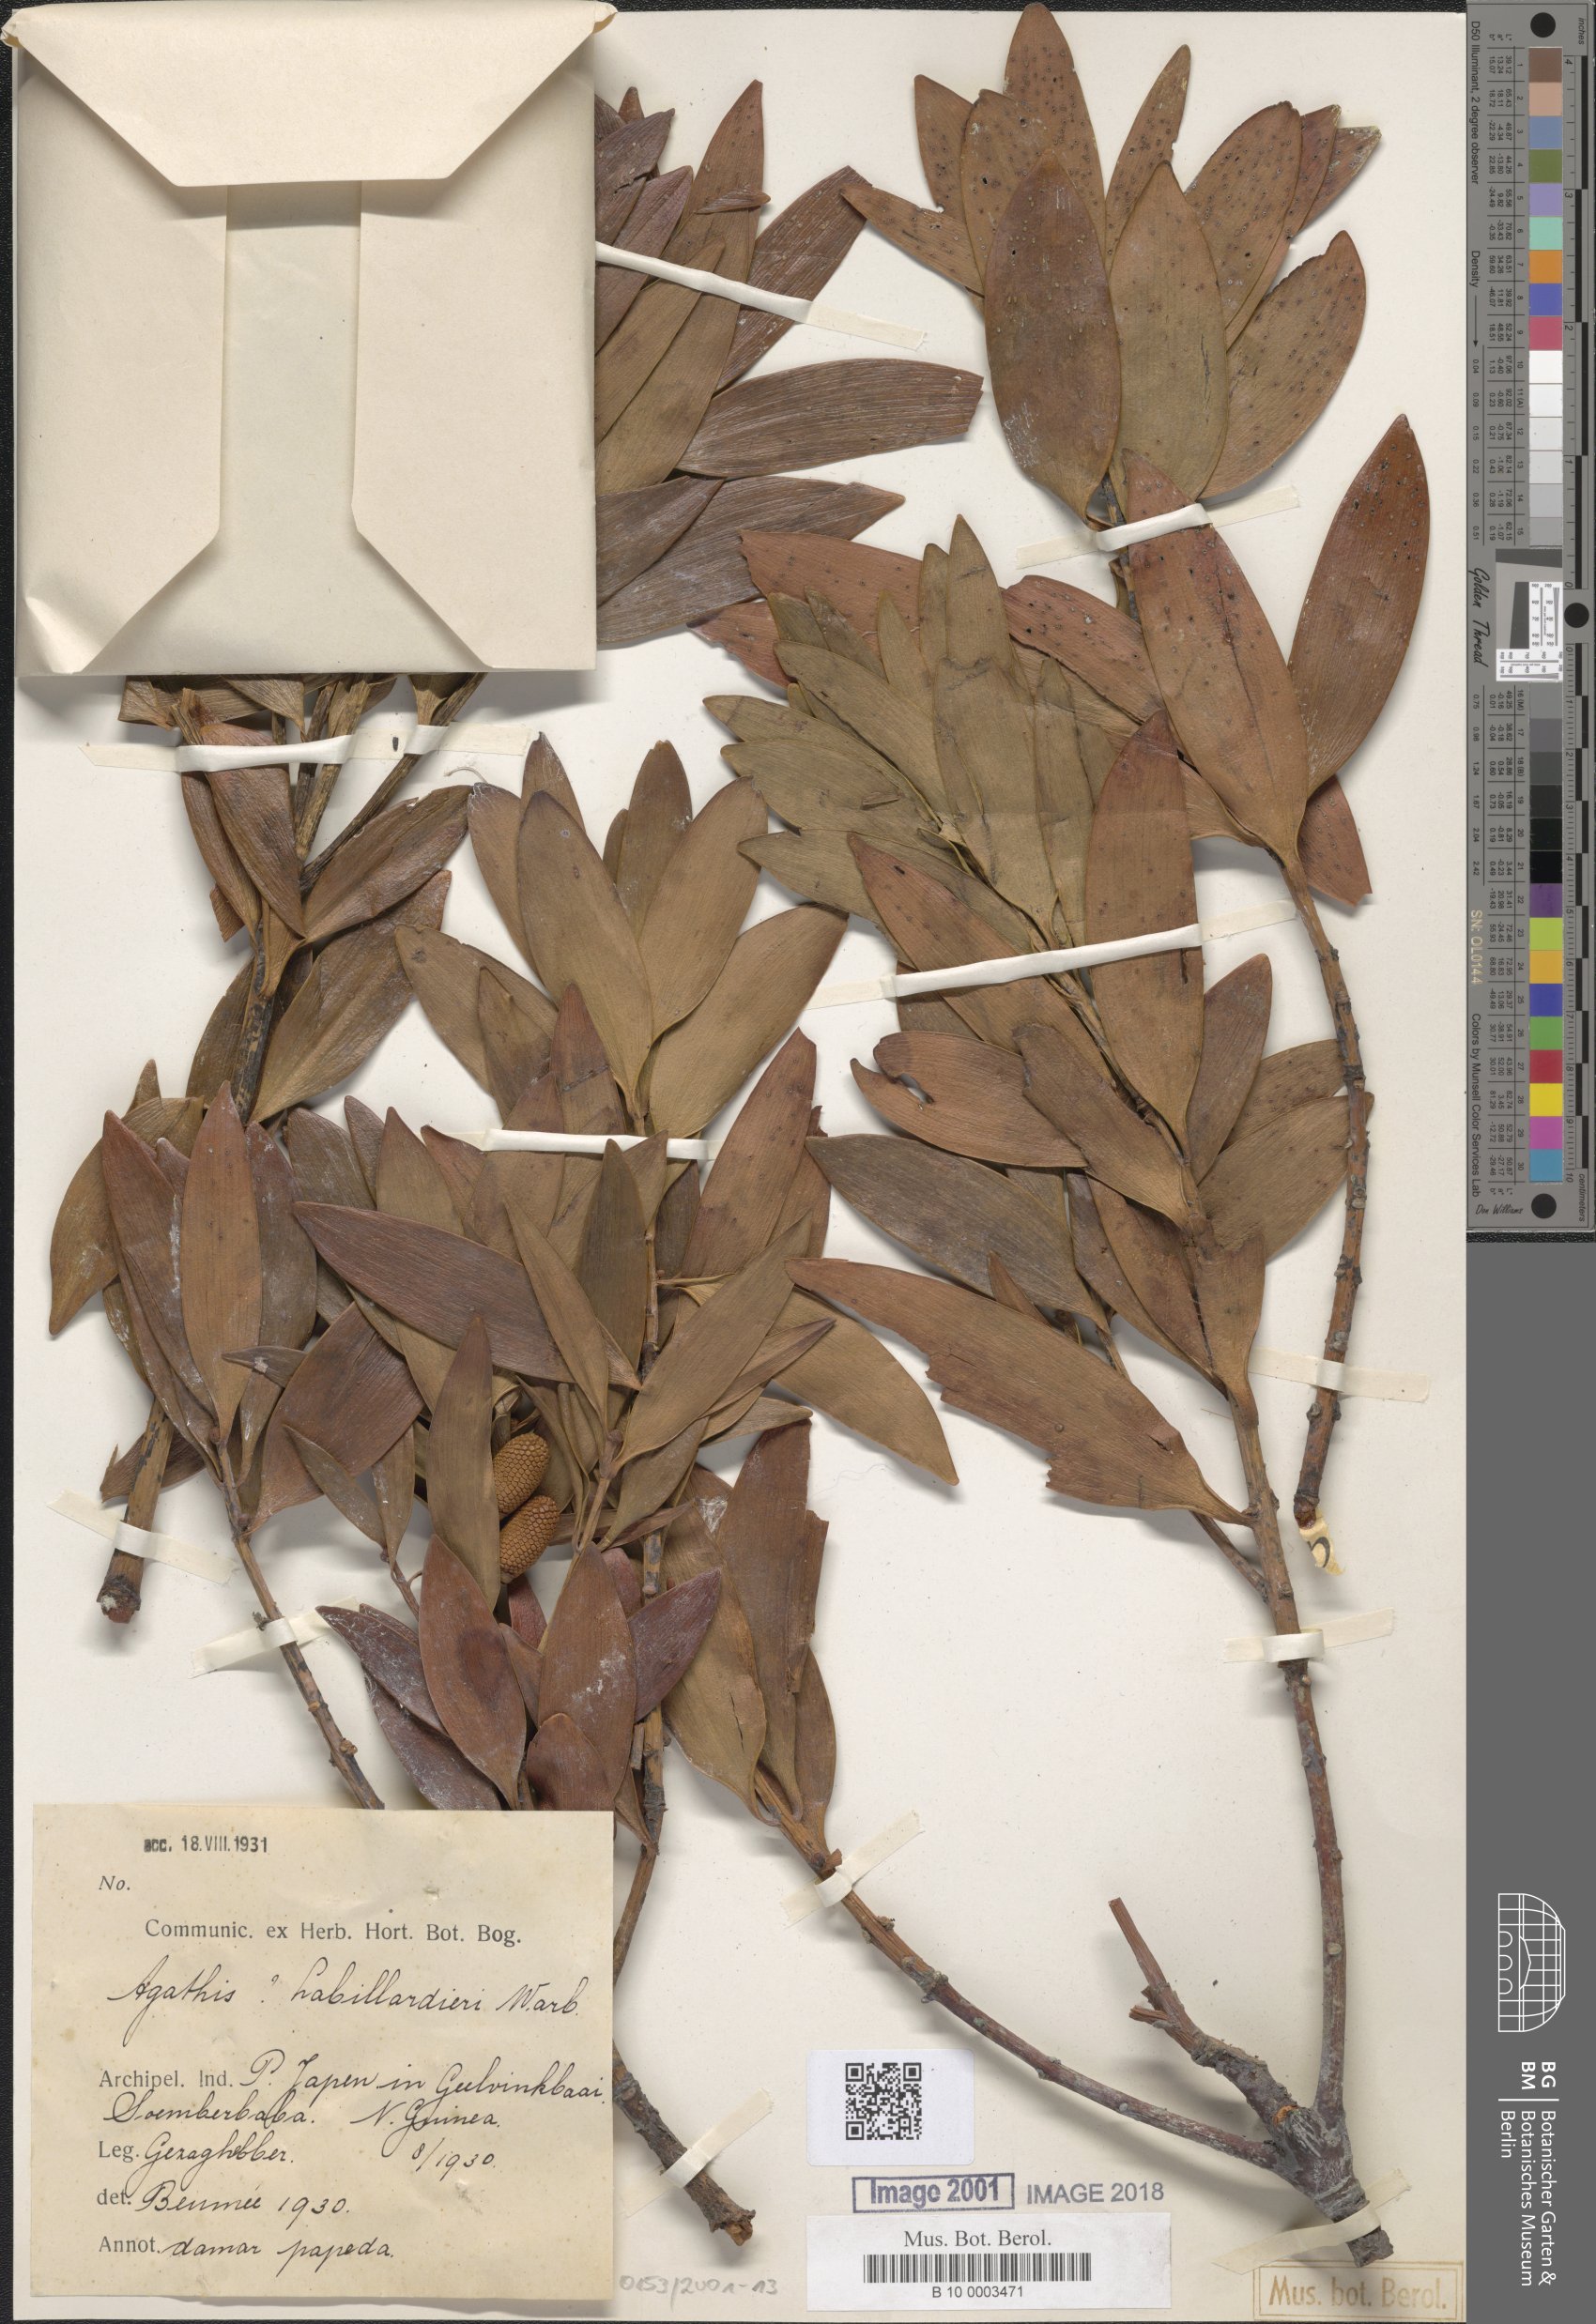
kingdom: Plantae
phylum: Tracheophyta
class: Pinopsida
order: Pinales
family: Araucariaceae
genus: Agathis
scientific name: Agathis labillardierei
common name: New guinea kauri
